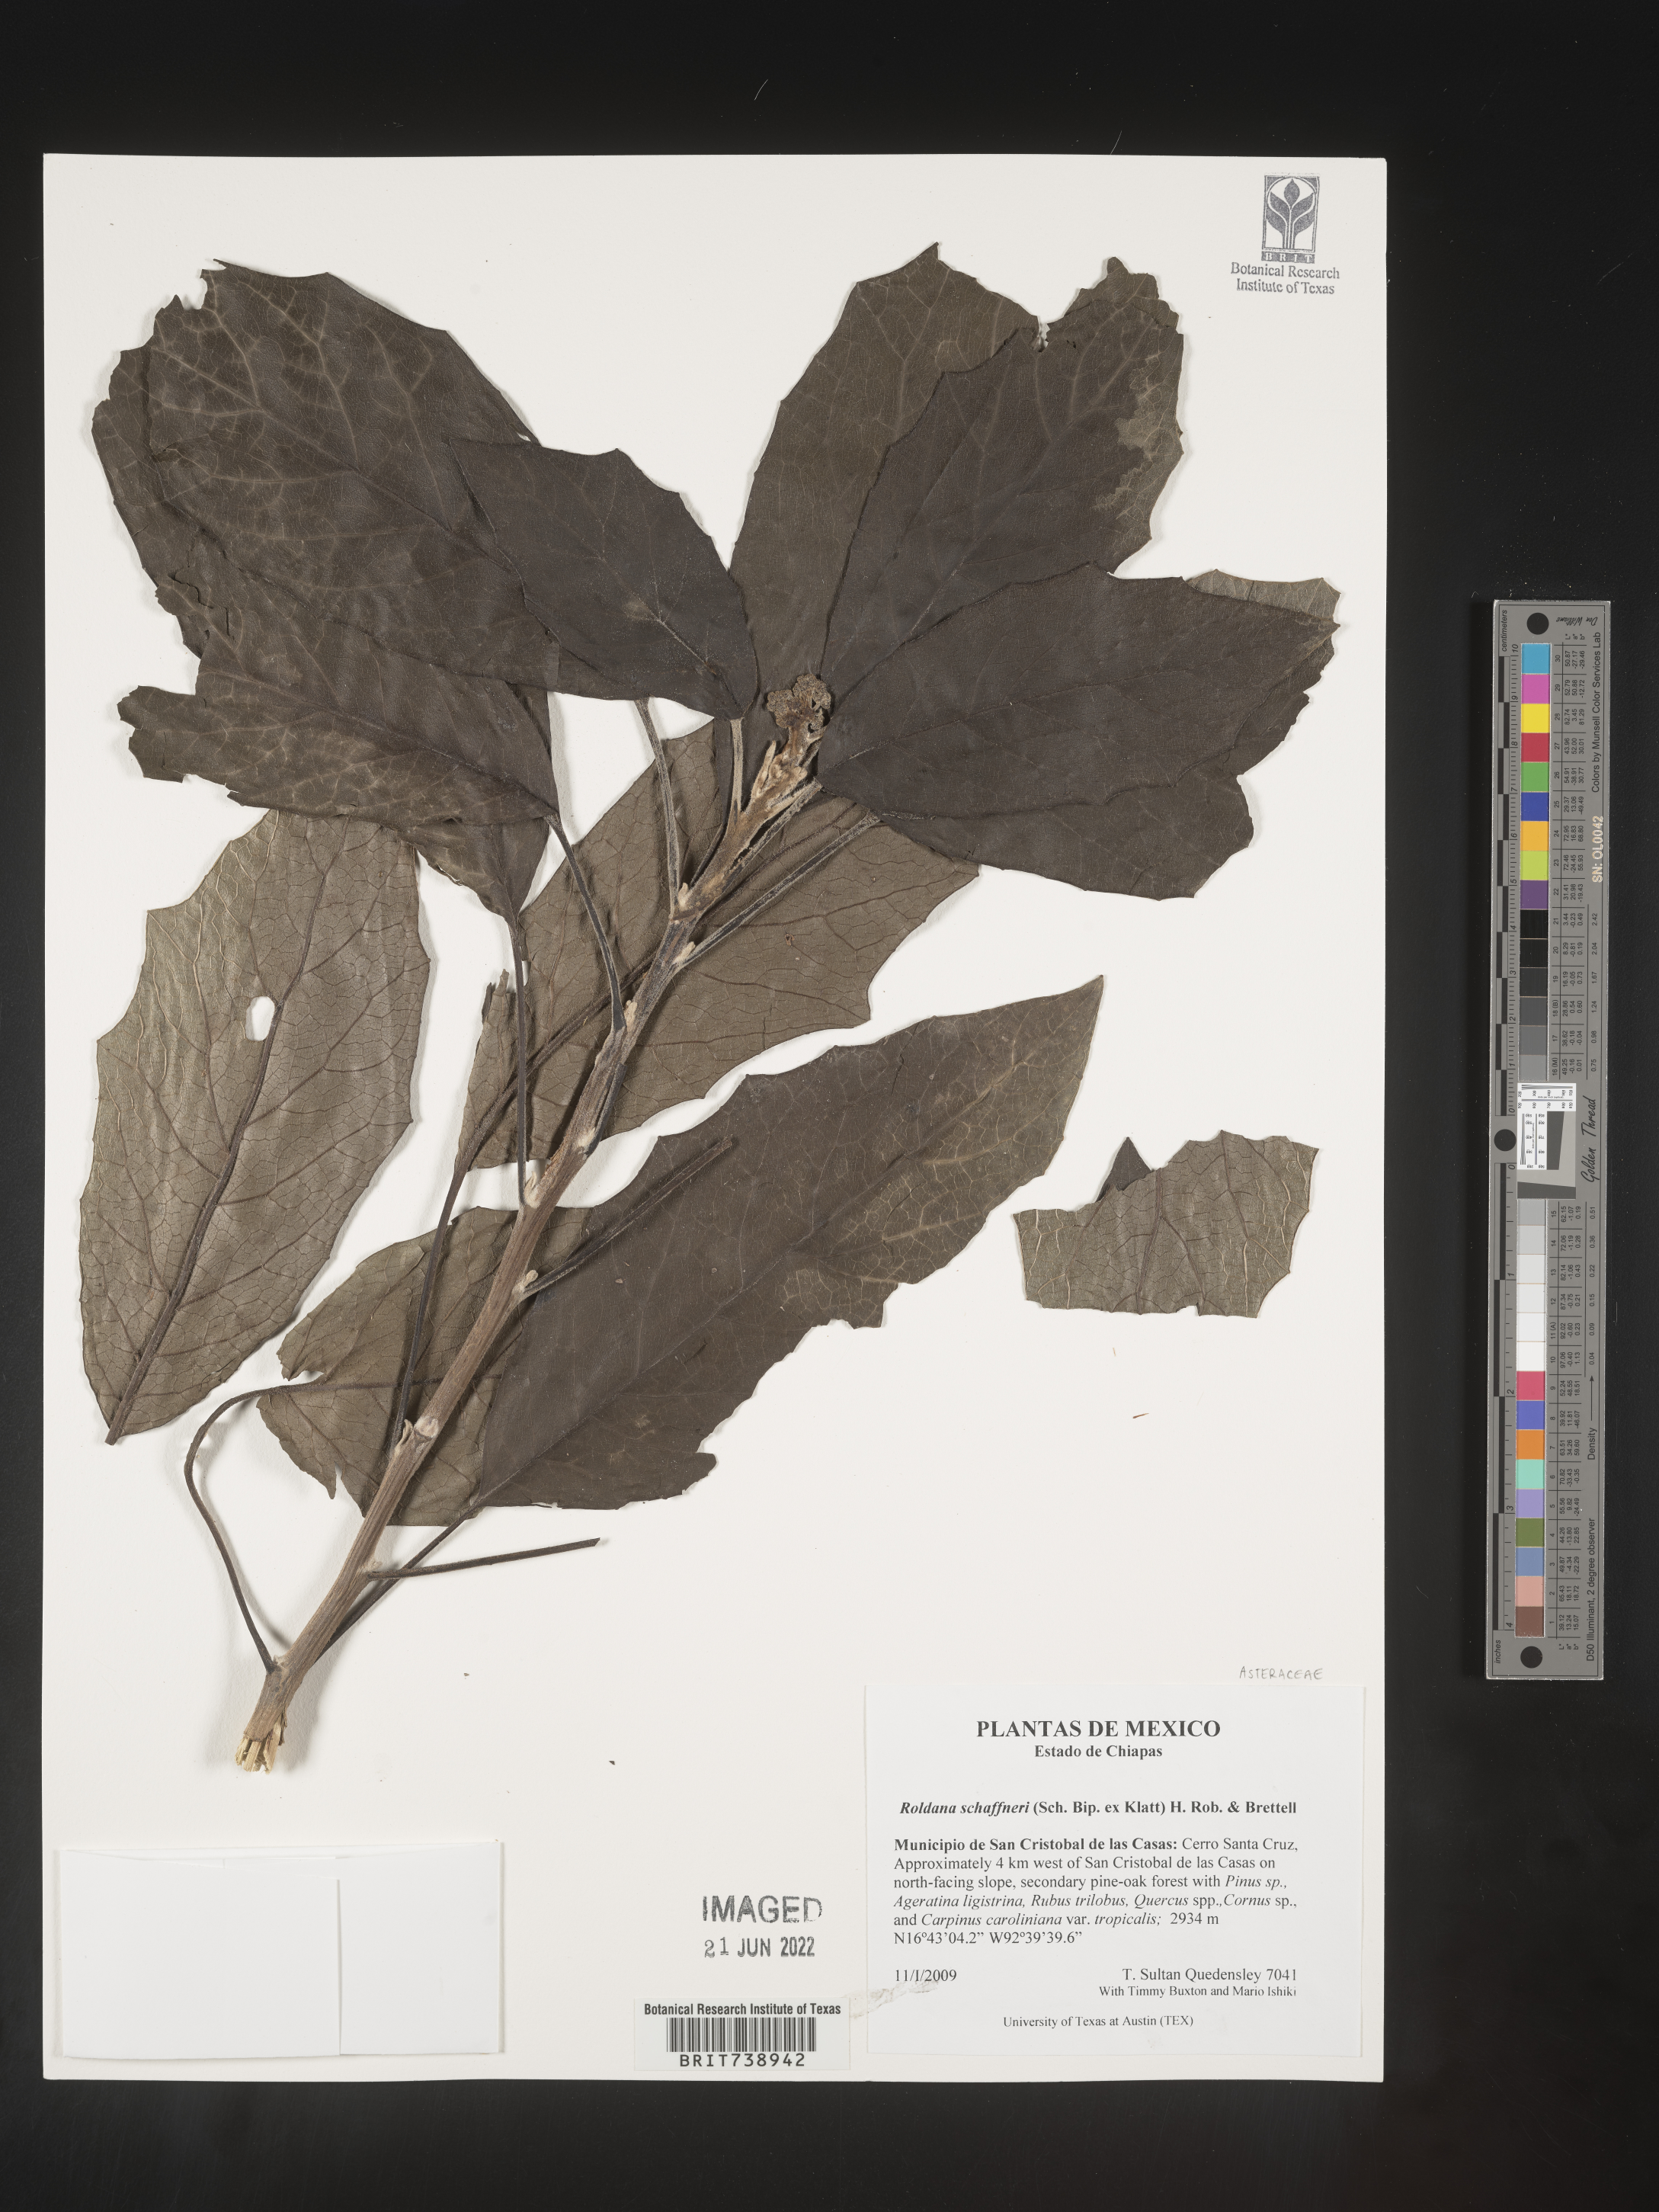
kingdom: Plantae
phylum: Tracheophyta
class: Magnoliopsida
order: Asterales
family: Asteraceae
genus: Roldana
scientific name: Roldana
